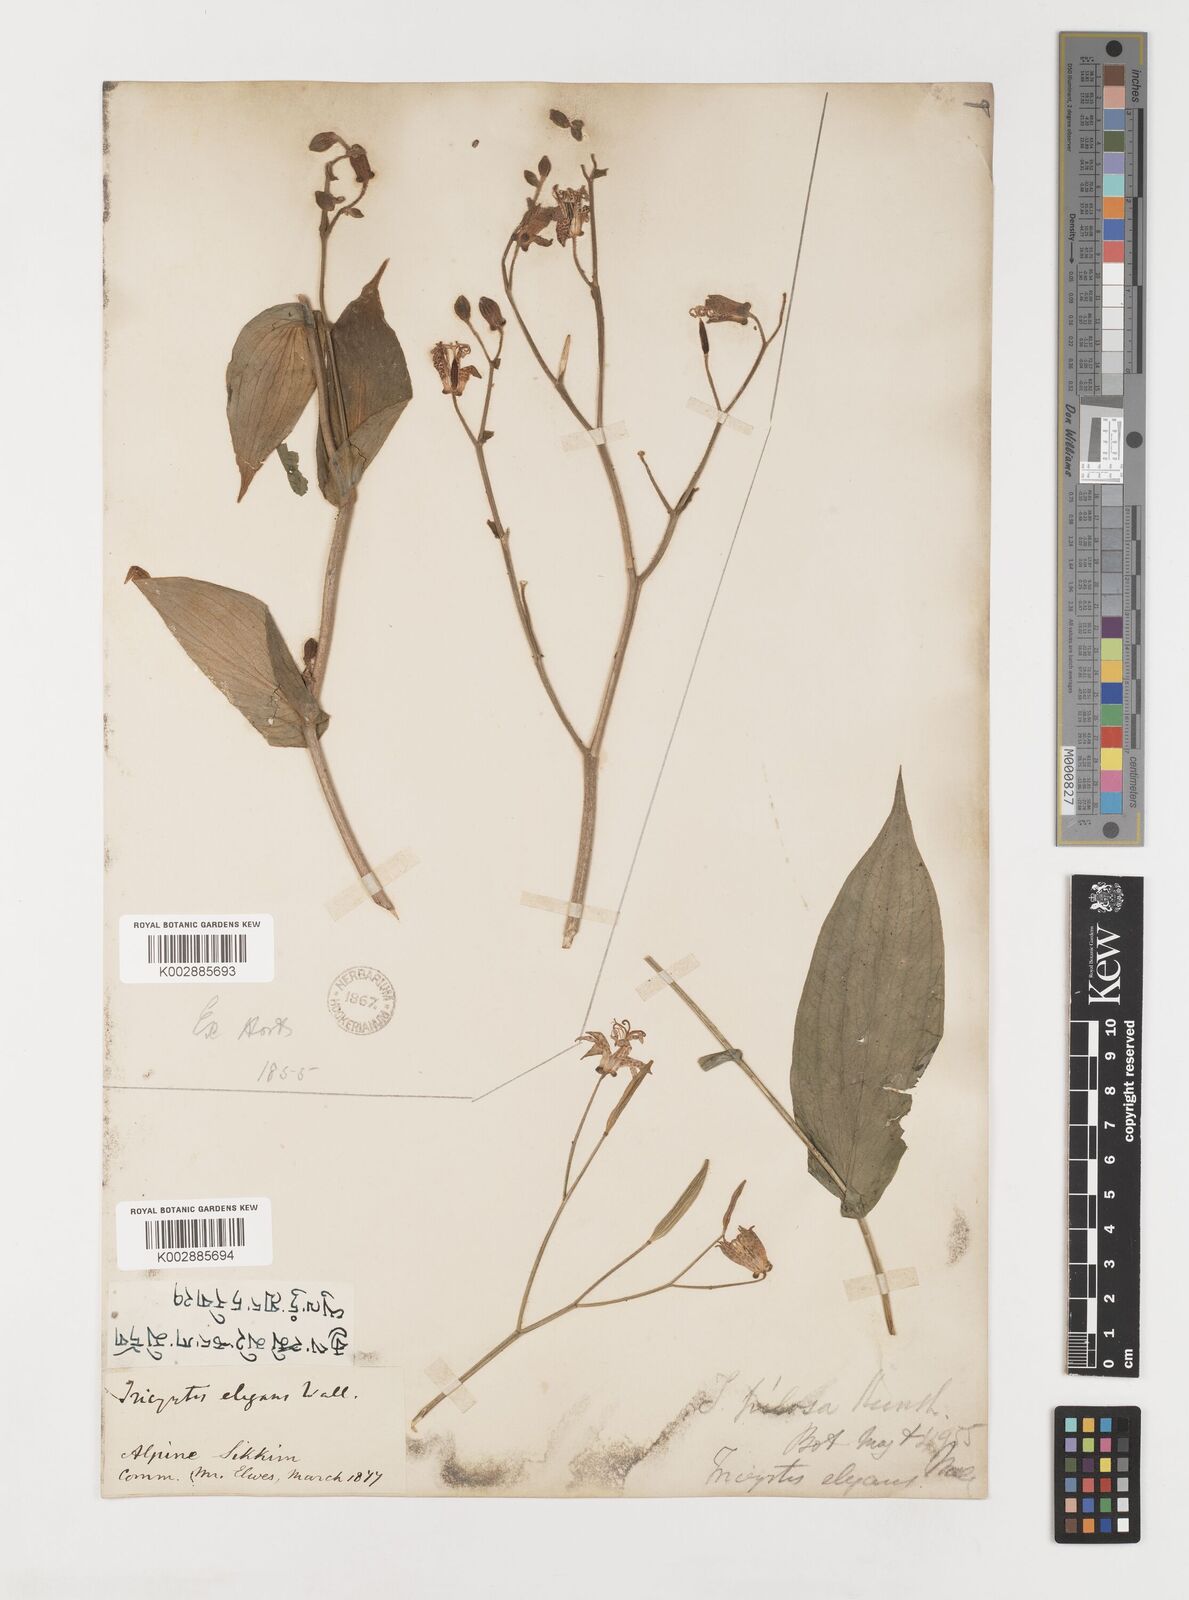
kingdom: Plantae
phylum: Tracheophyta
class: Liliopsida
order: Liliales
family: Liliaceae
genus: Tricyrtis
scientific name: Tricyrtis maculata
